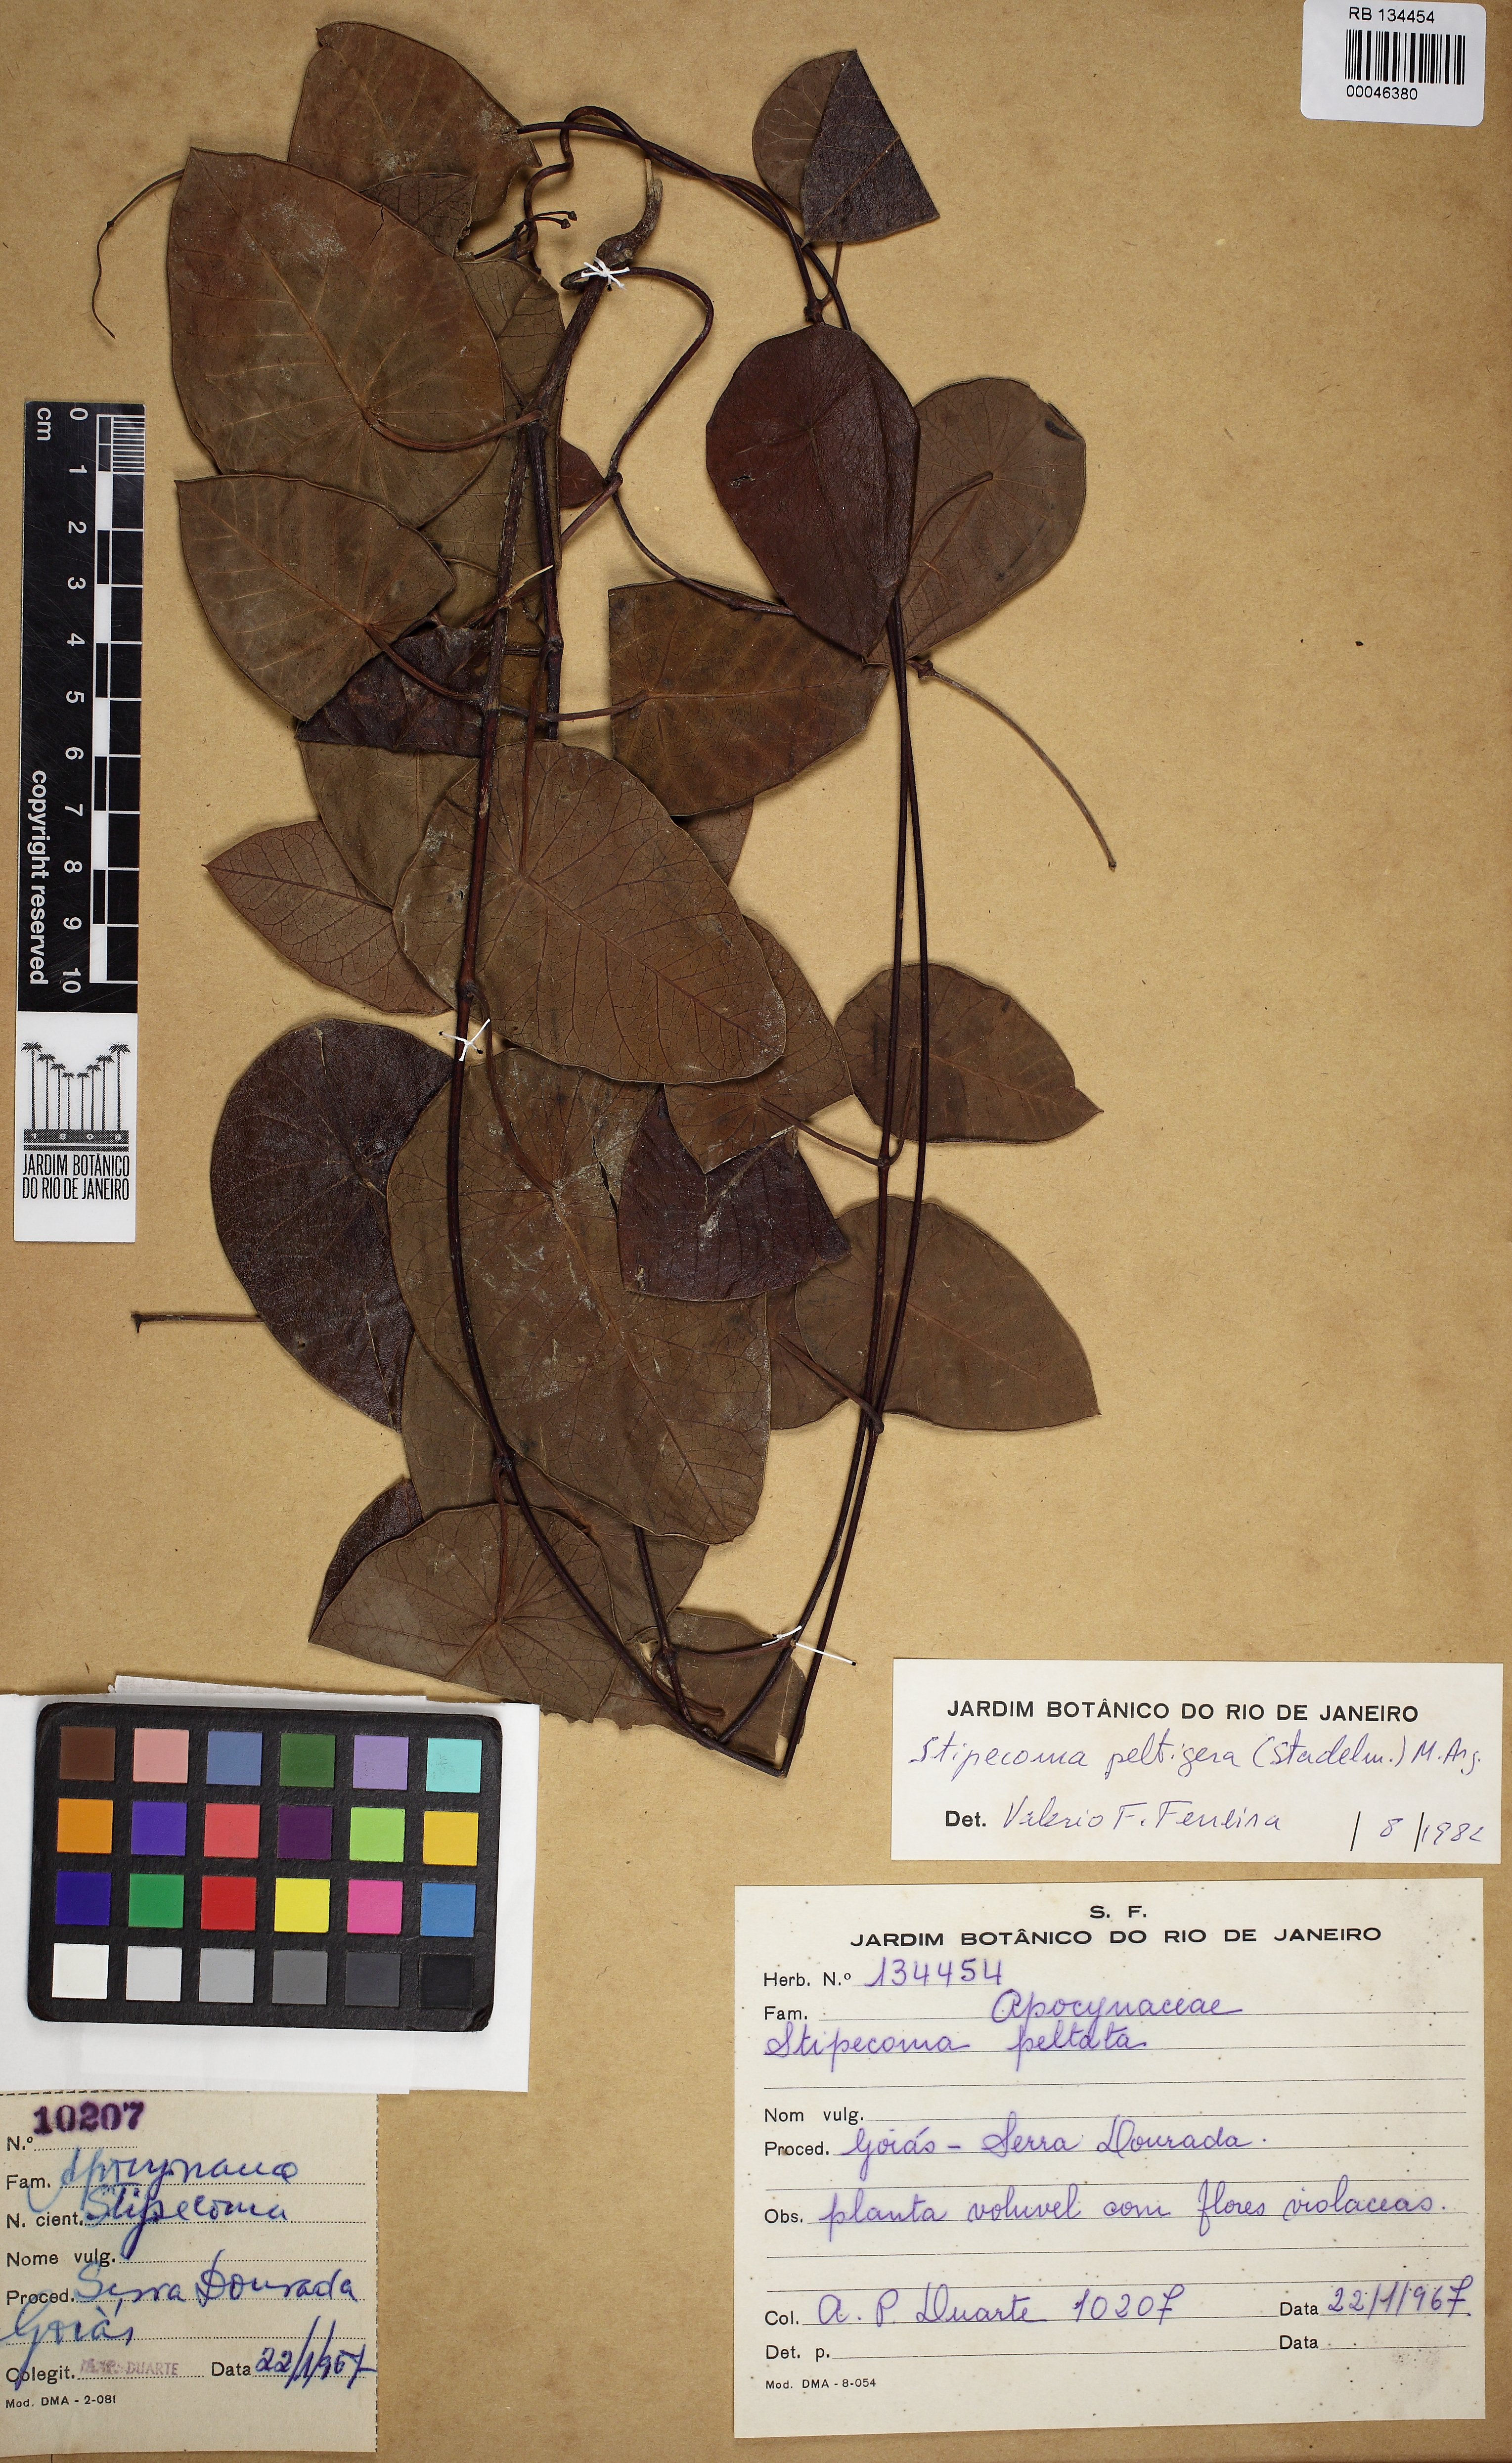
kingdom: Plantae
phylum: Tracheophyta
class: Magnoliopsida
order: Gentianales
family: Apocynaceae
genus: Stipecoma
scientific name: Stipecoma peltigera
